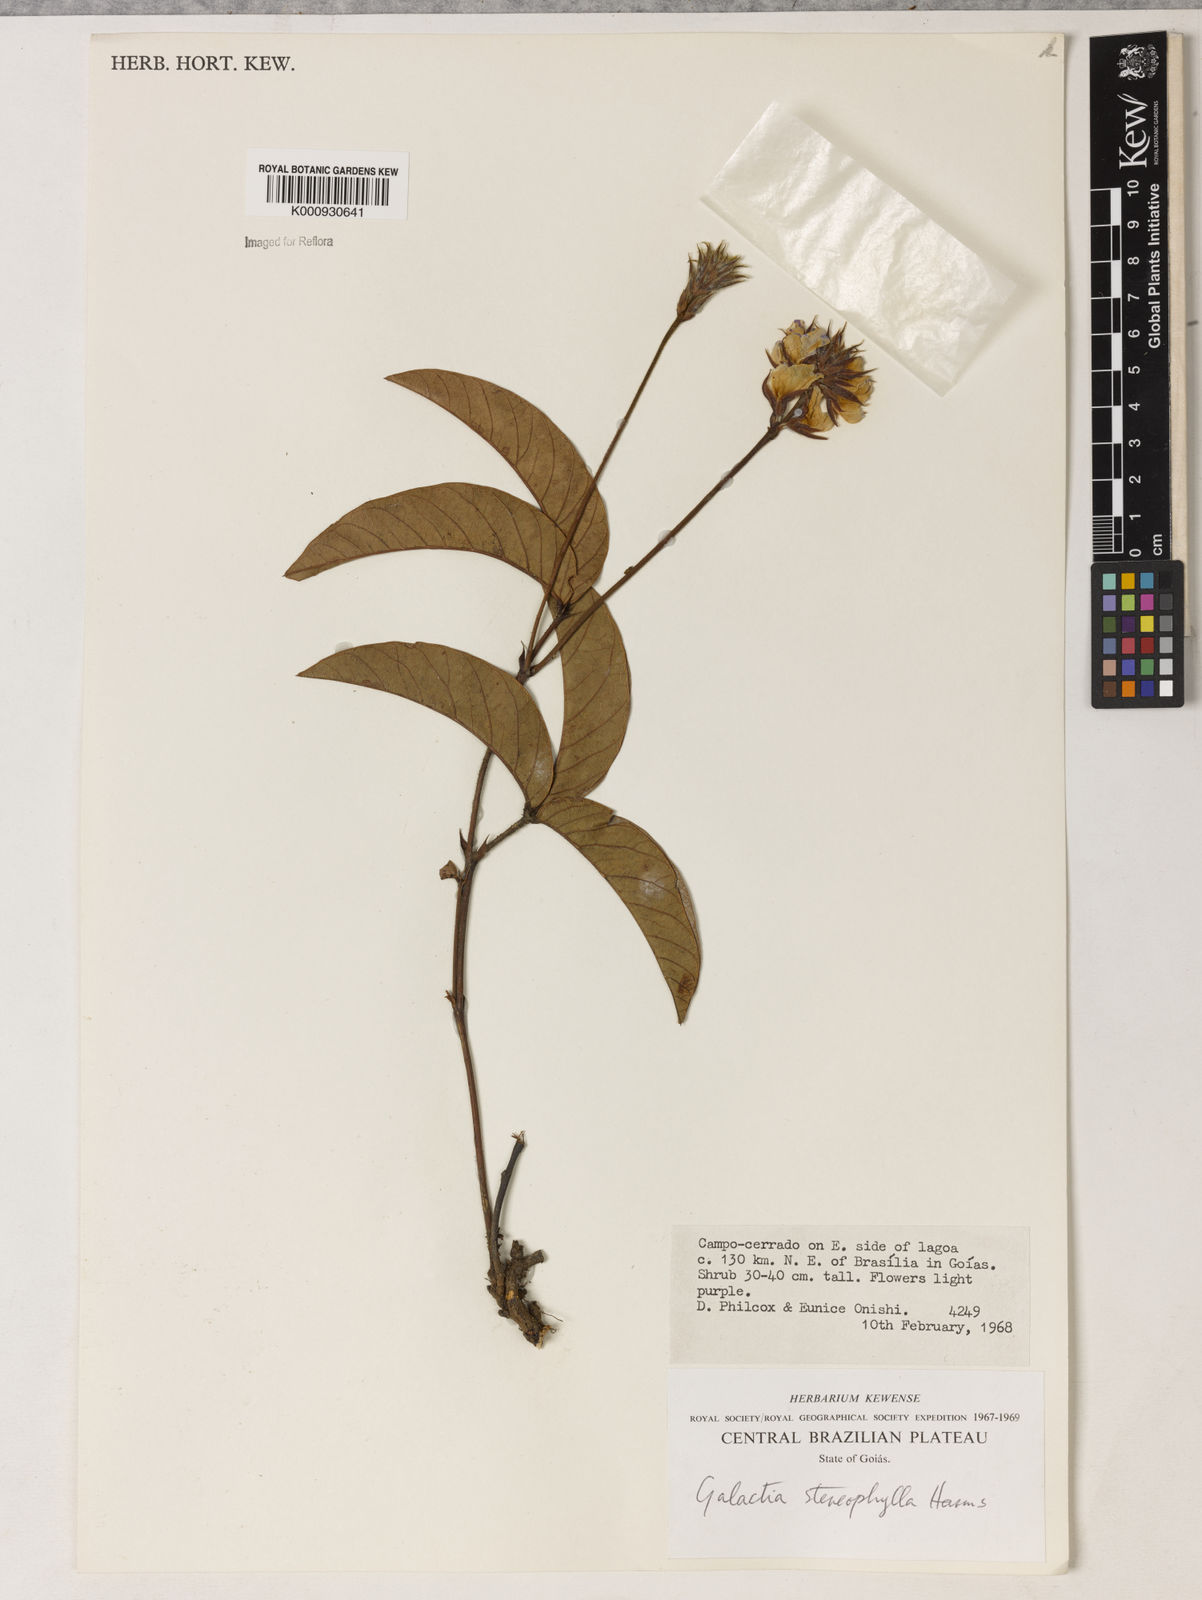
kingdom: Plantae
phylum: Tracheophyta
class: Magnoliopsida
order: Fabales
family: Fabaceae
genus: Betencourtia
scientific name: Betencourtia stereophylla
